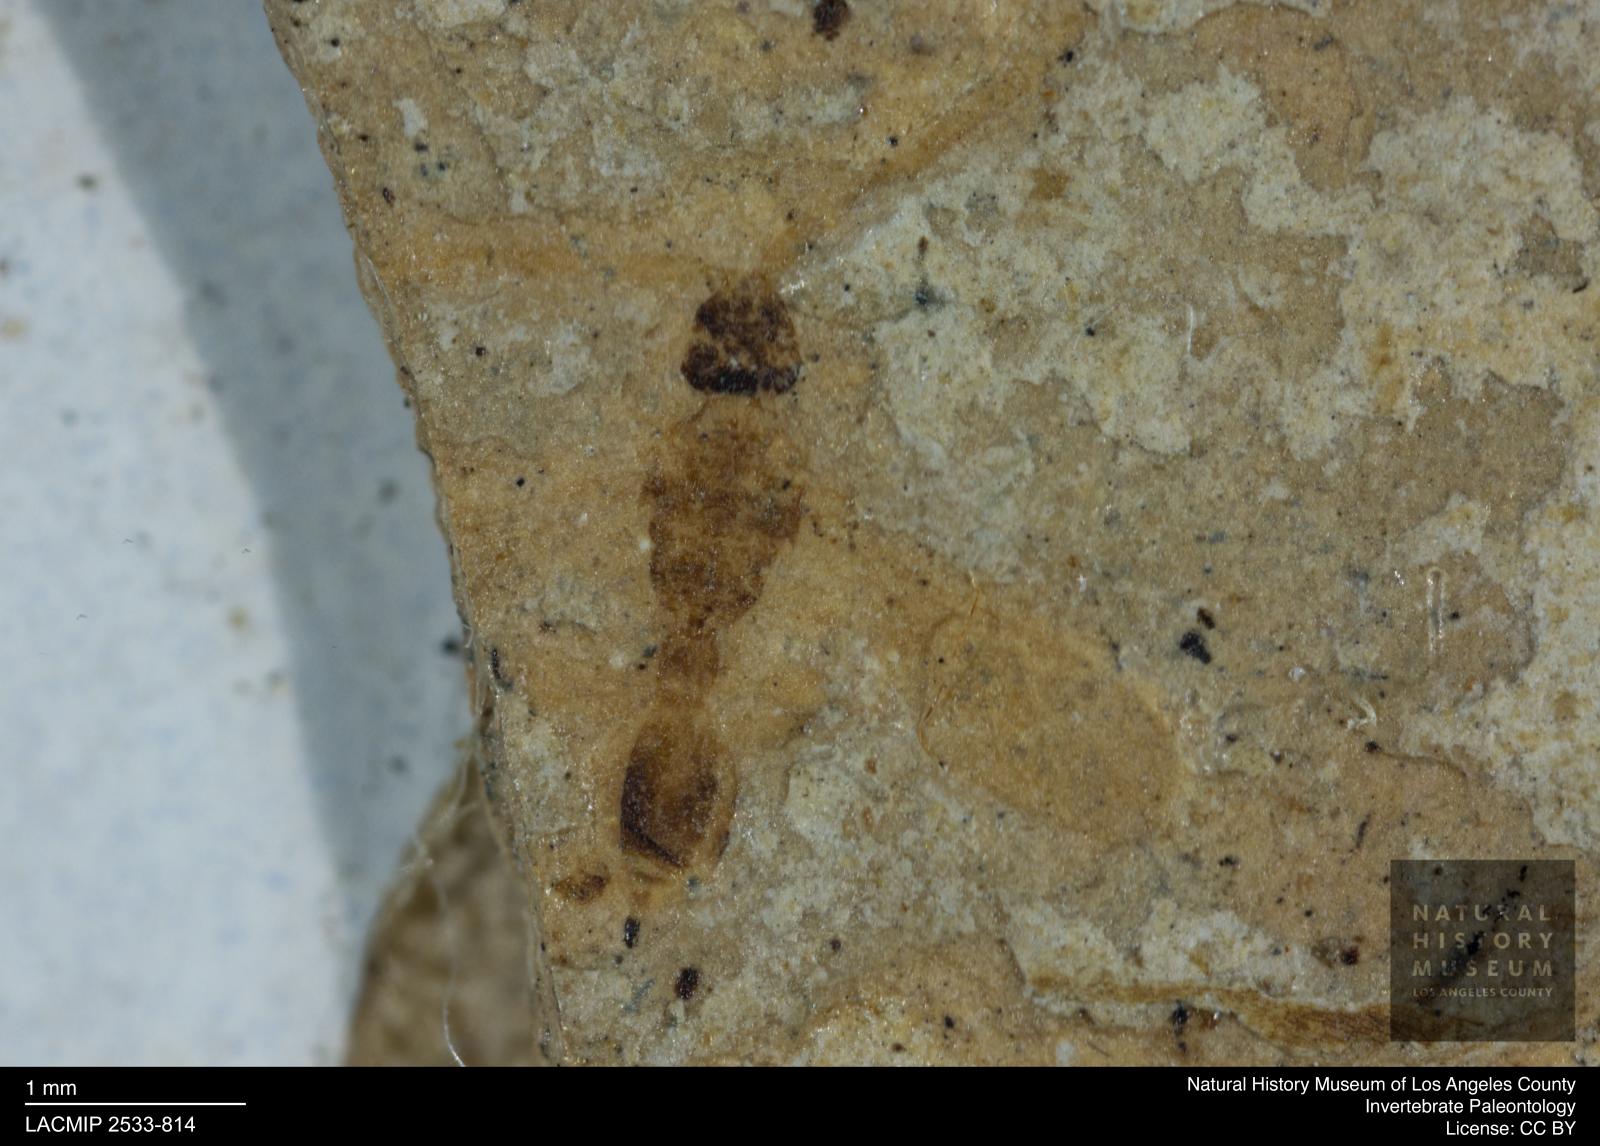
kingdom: Animalia
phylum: Arthropoda
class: Insecta
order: Hymenoptera
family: Diapriidae
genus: Pantoclis
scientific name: Pantoclis margaritaceus
